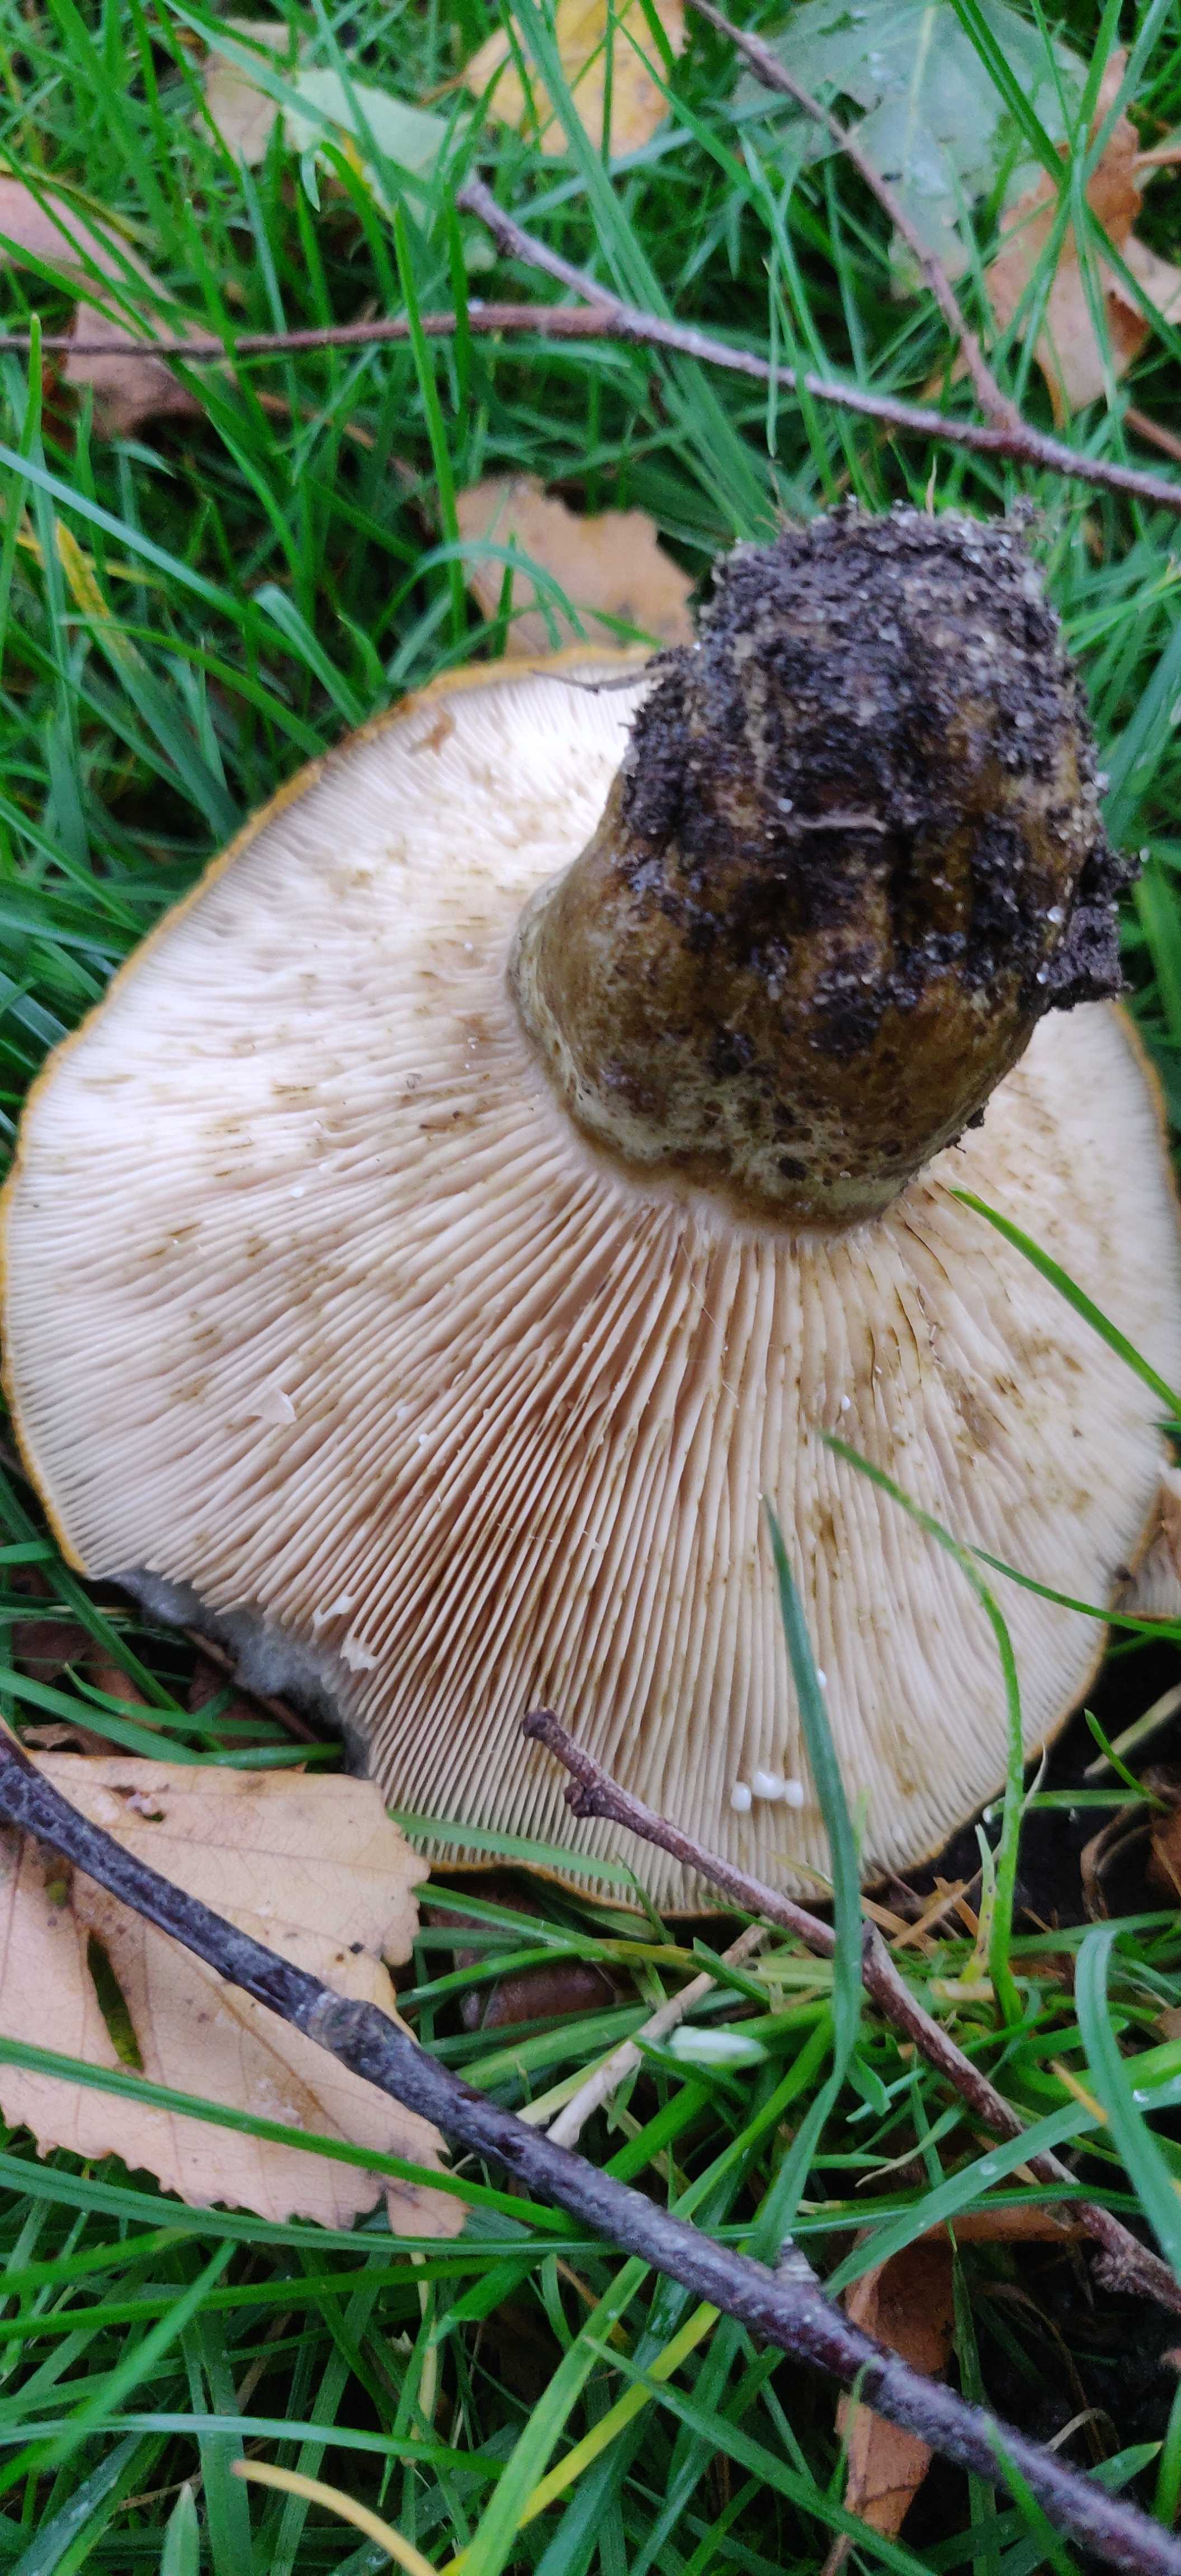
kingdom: Fungi
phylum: Basidiomycota
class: Agaricomycetes
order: Russulales
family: Russulaceae
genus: Lactarius
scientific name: Lactarius necator
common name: manddraber-mælkehat
